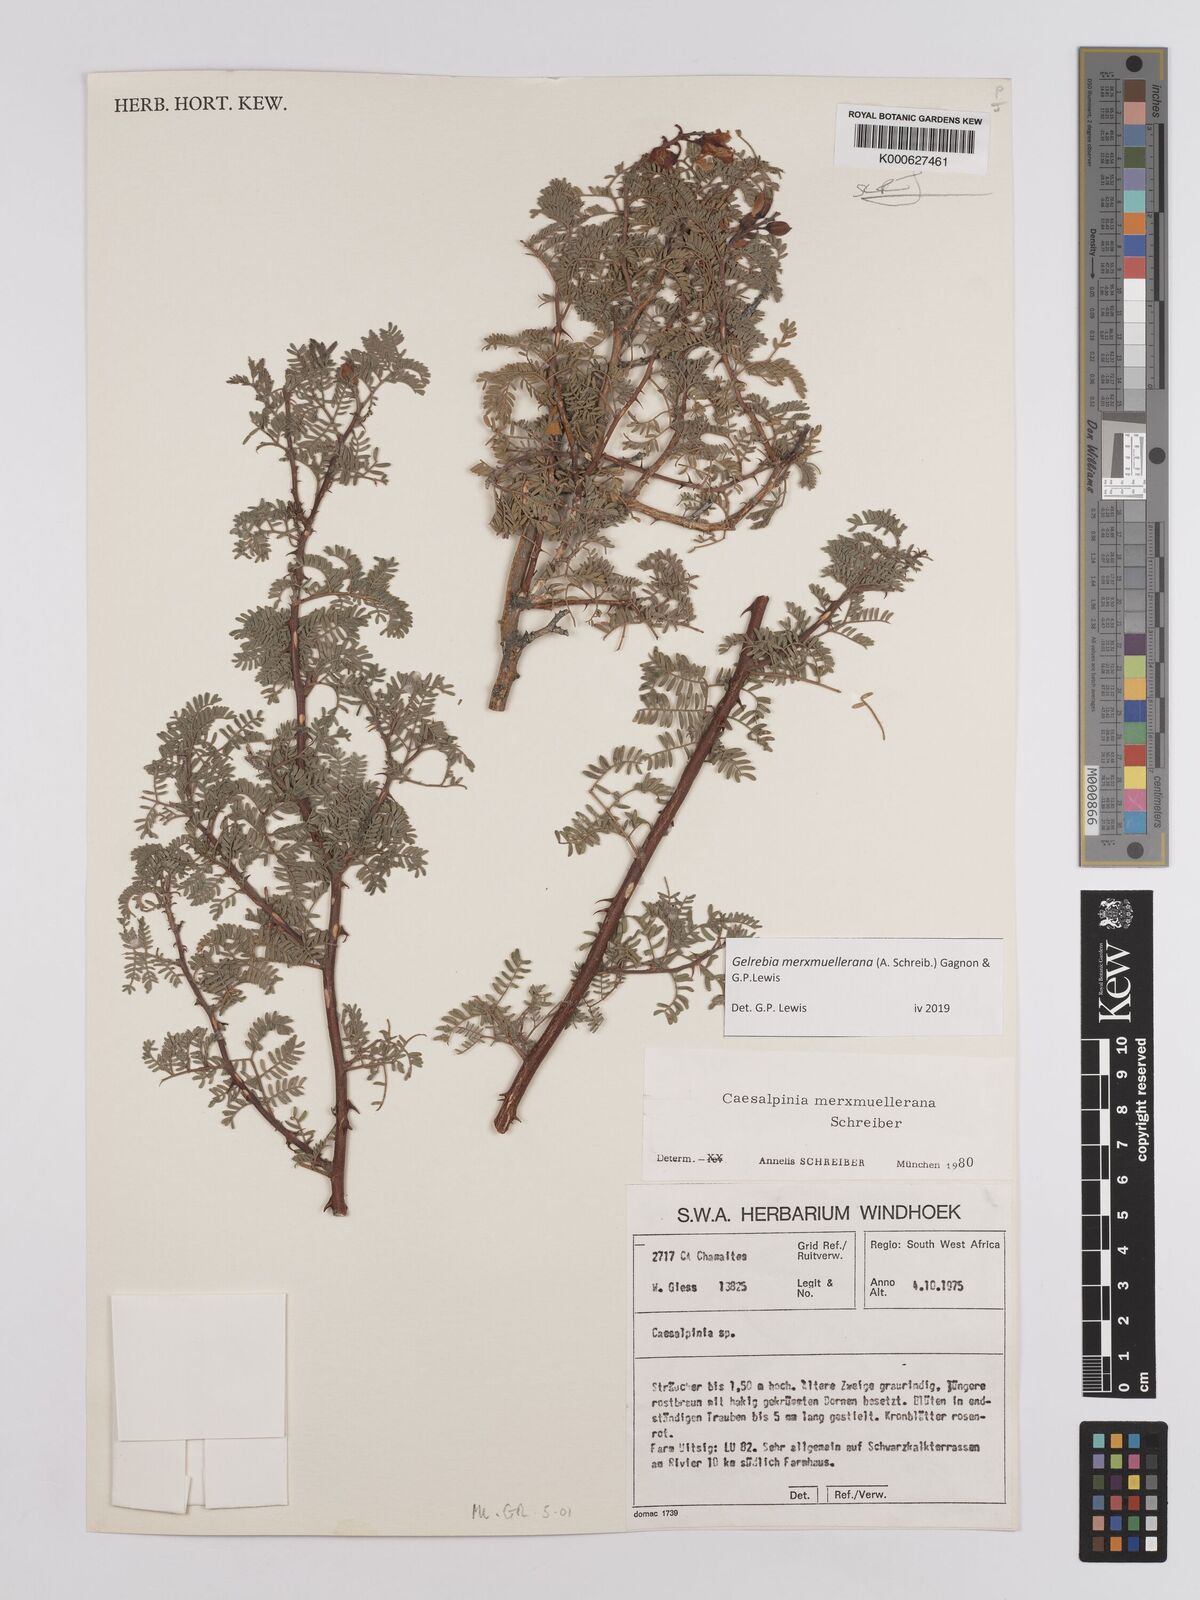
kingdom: Plantae
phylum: Tracheophyta
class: Magnoliopsida
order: Fabales
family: Fabaceae
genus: Gelrebia
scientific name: Gelrebia merxmuellerana
